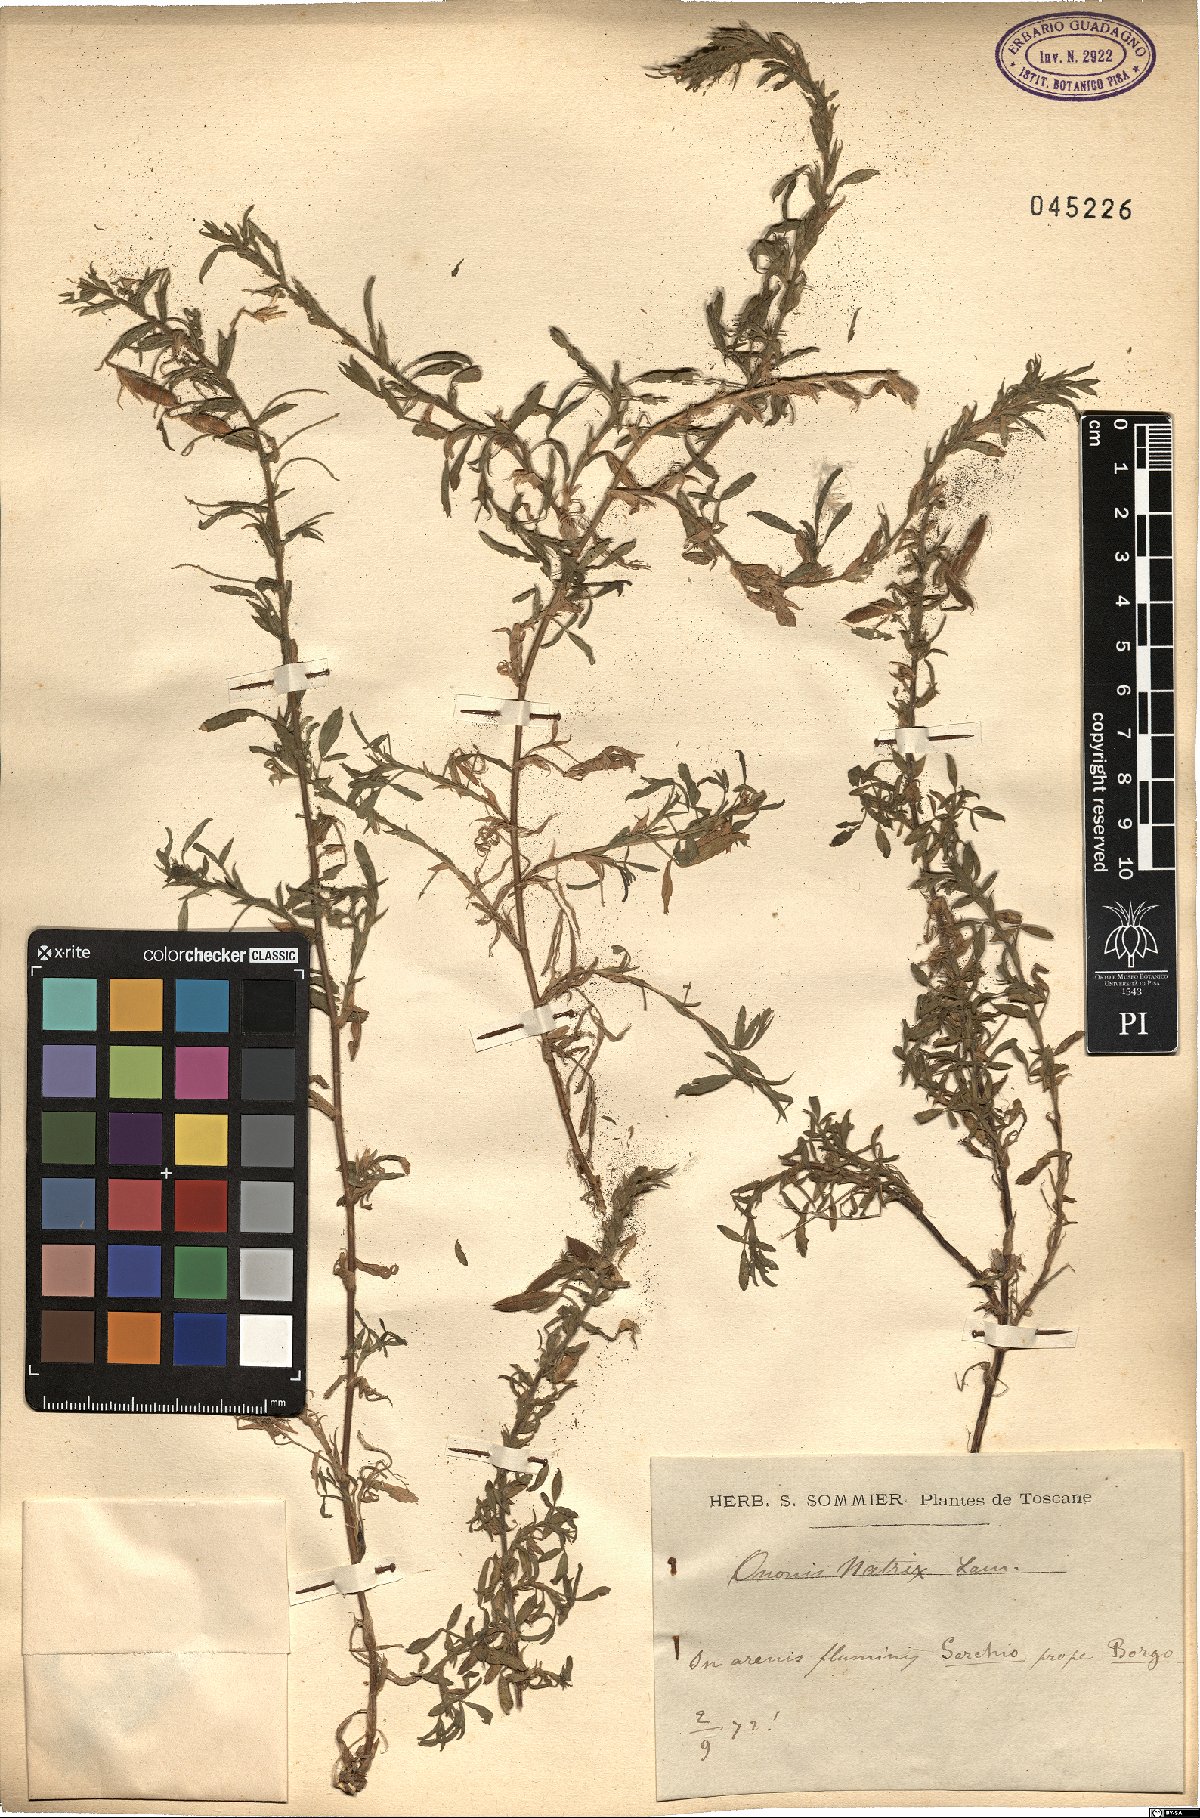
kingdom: Plantae
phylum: Tracheophyta
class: Magnoliopsida
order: Fabales
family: Fabaceae
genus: Ononis
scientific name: Ononis natrix
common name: Yellow restharrow
